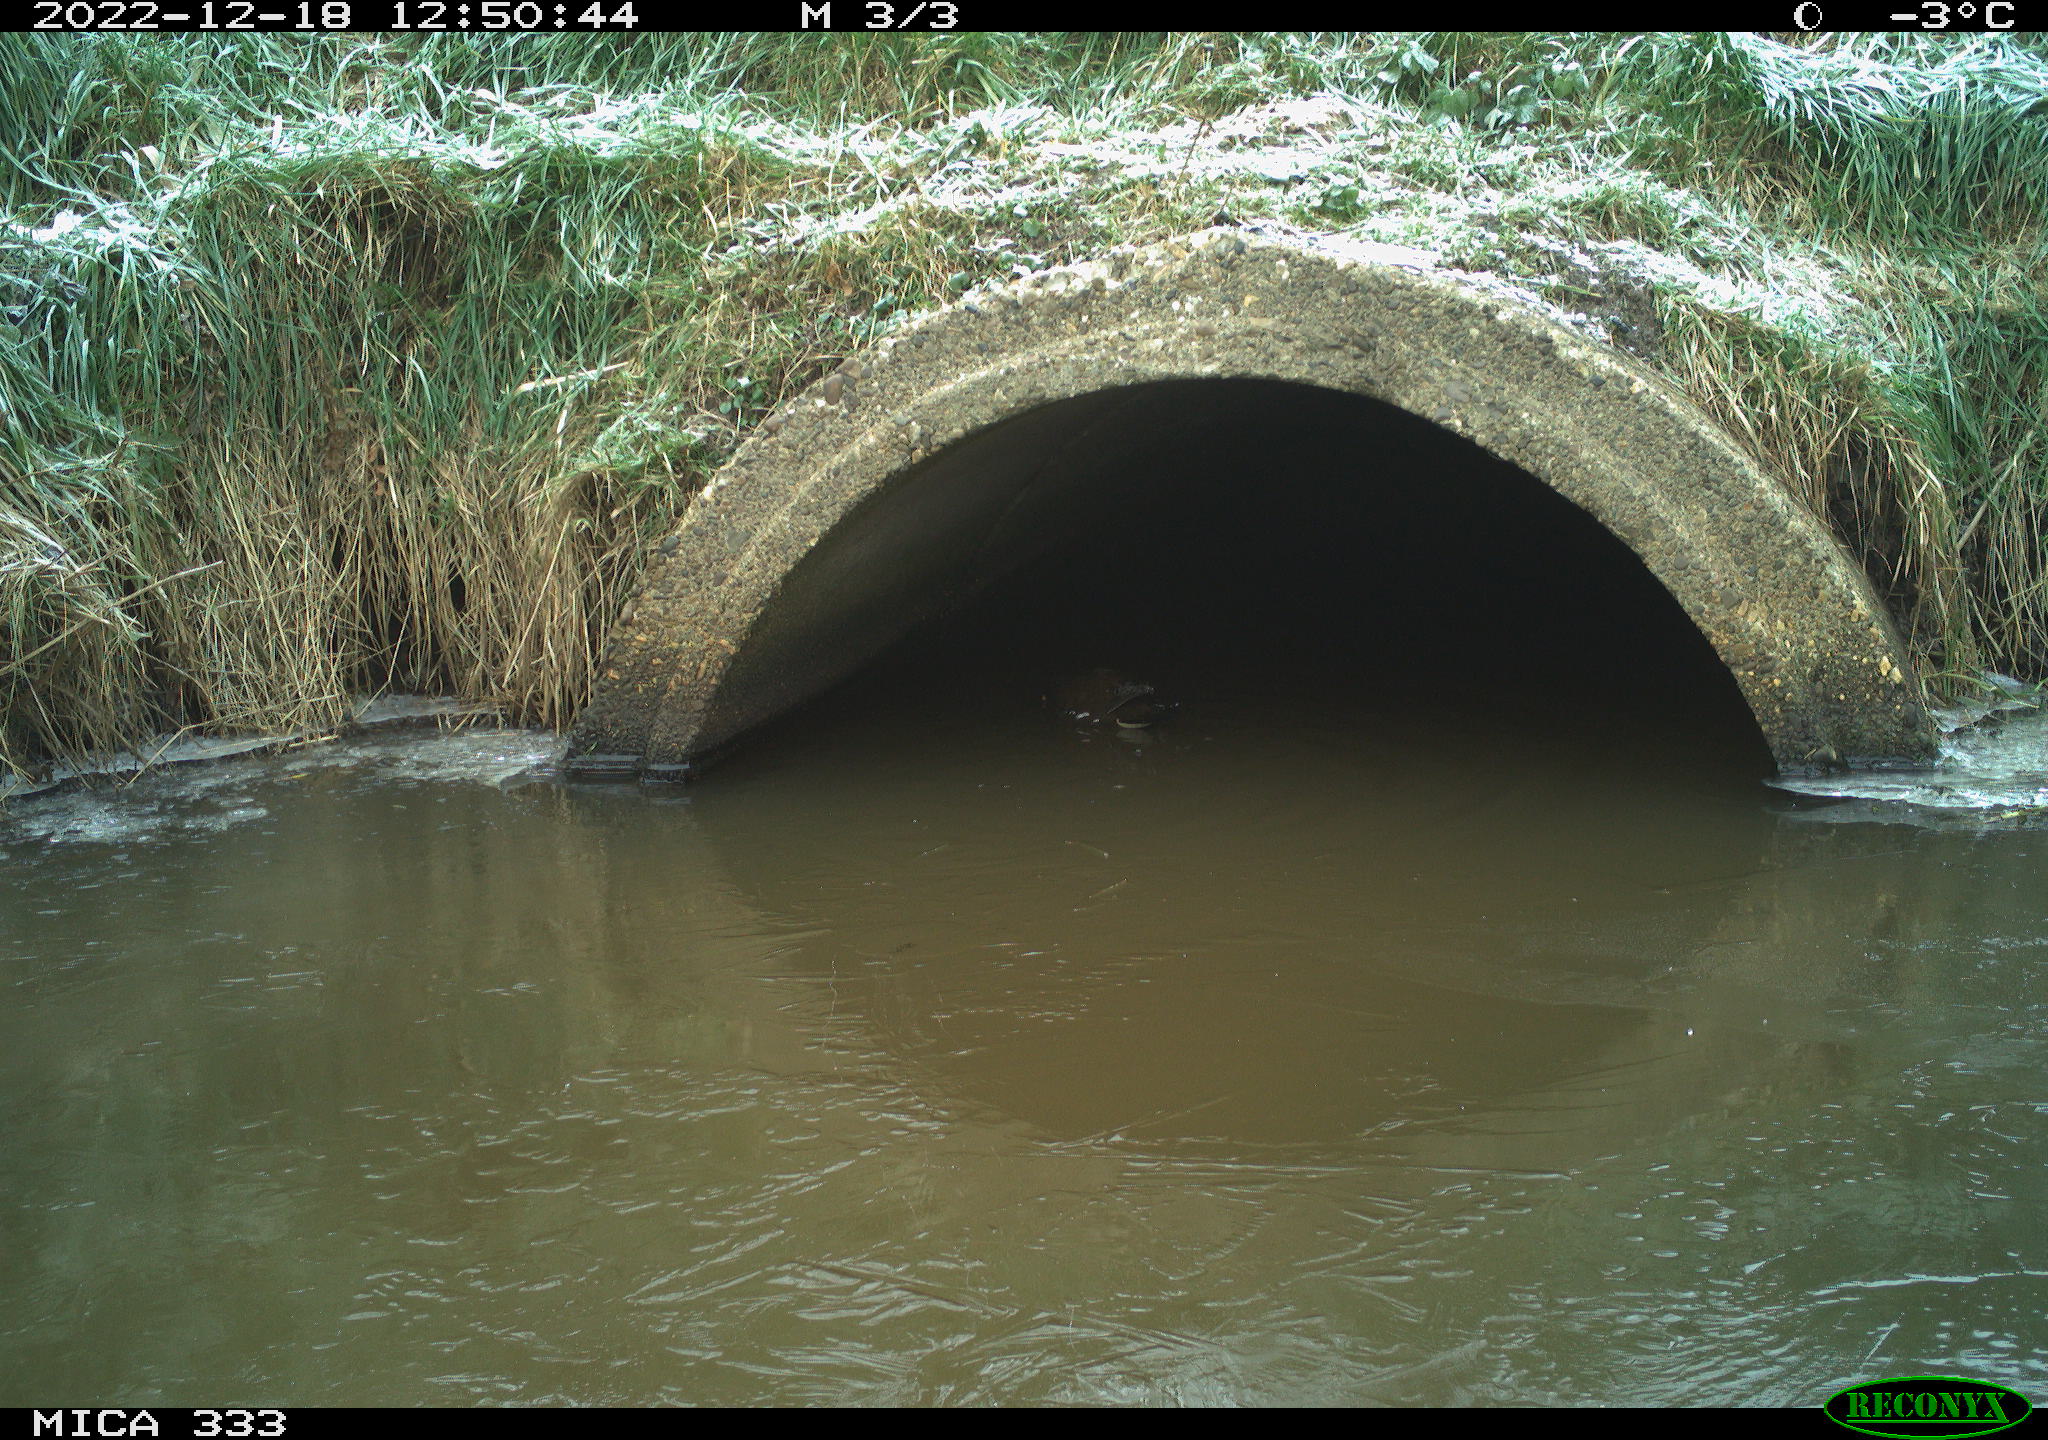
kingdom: Animalia
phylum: Chordata
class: Aves
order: Gruiformes
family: Rallidae
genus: Gallinula
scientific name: Gallinula chloropus
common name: Common moorhen
